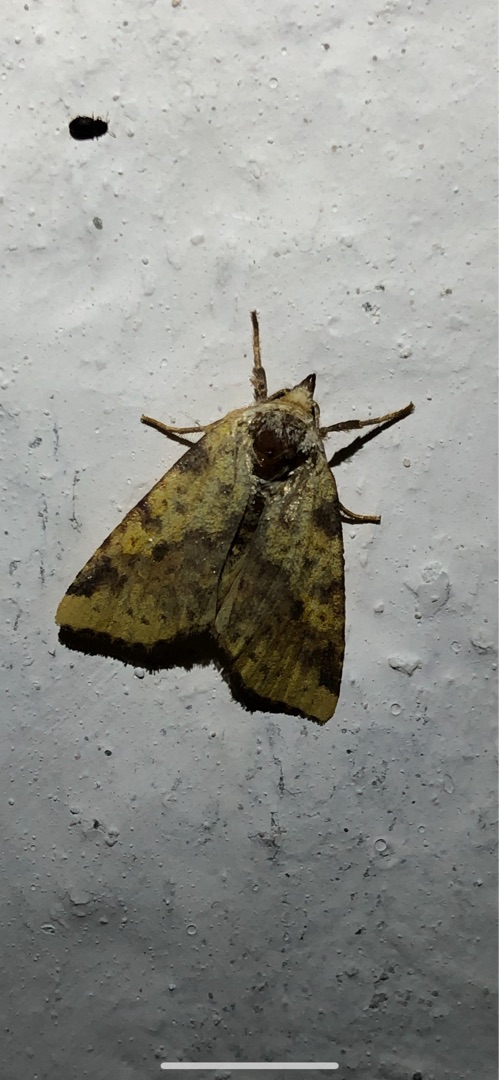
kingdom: Animalia
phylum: Arthropoda
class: Insecta
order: Lepidoptera
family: Noctuidae
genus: Xanthia
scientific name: Xanthia togata
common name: Toga-septemberugle
